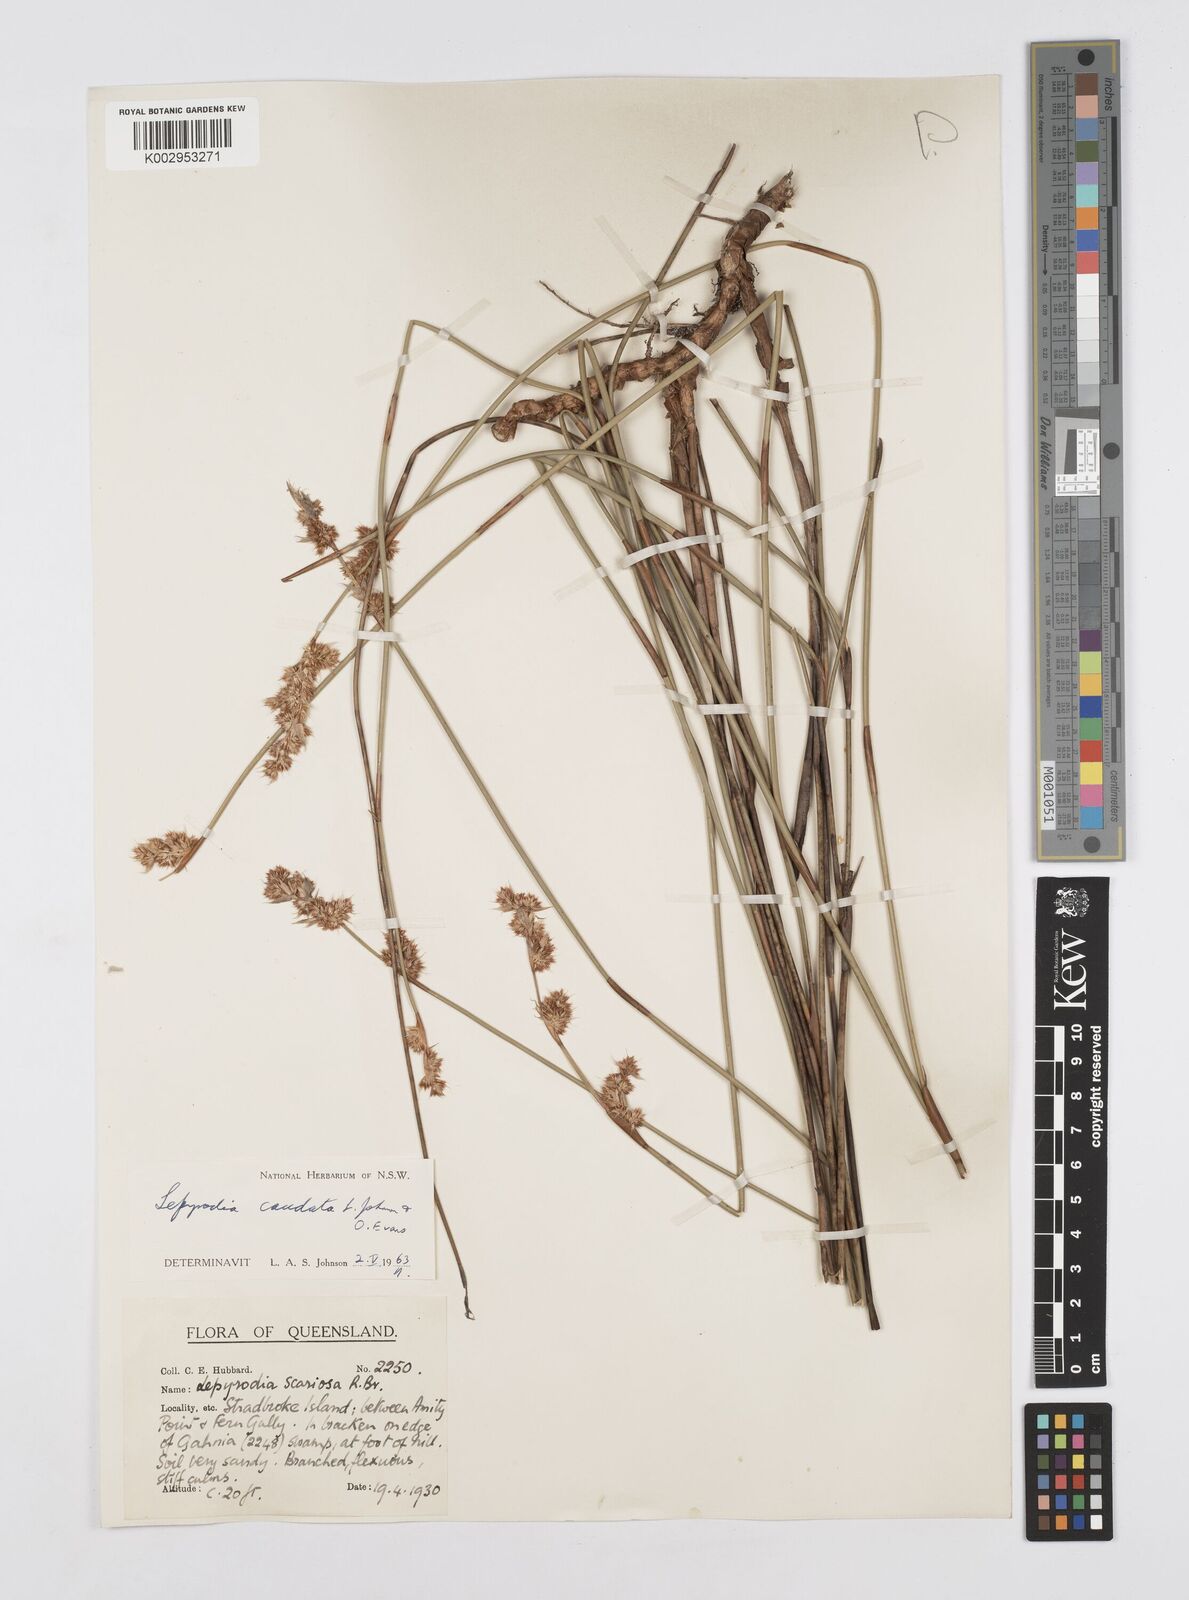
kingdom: Plantae
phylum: Tracheophyta
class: Liliopsida
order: Poales
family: Restionaceae
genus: Sporadanthus
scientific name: Sporadanthus caudatus
